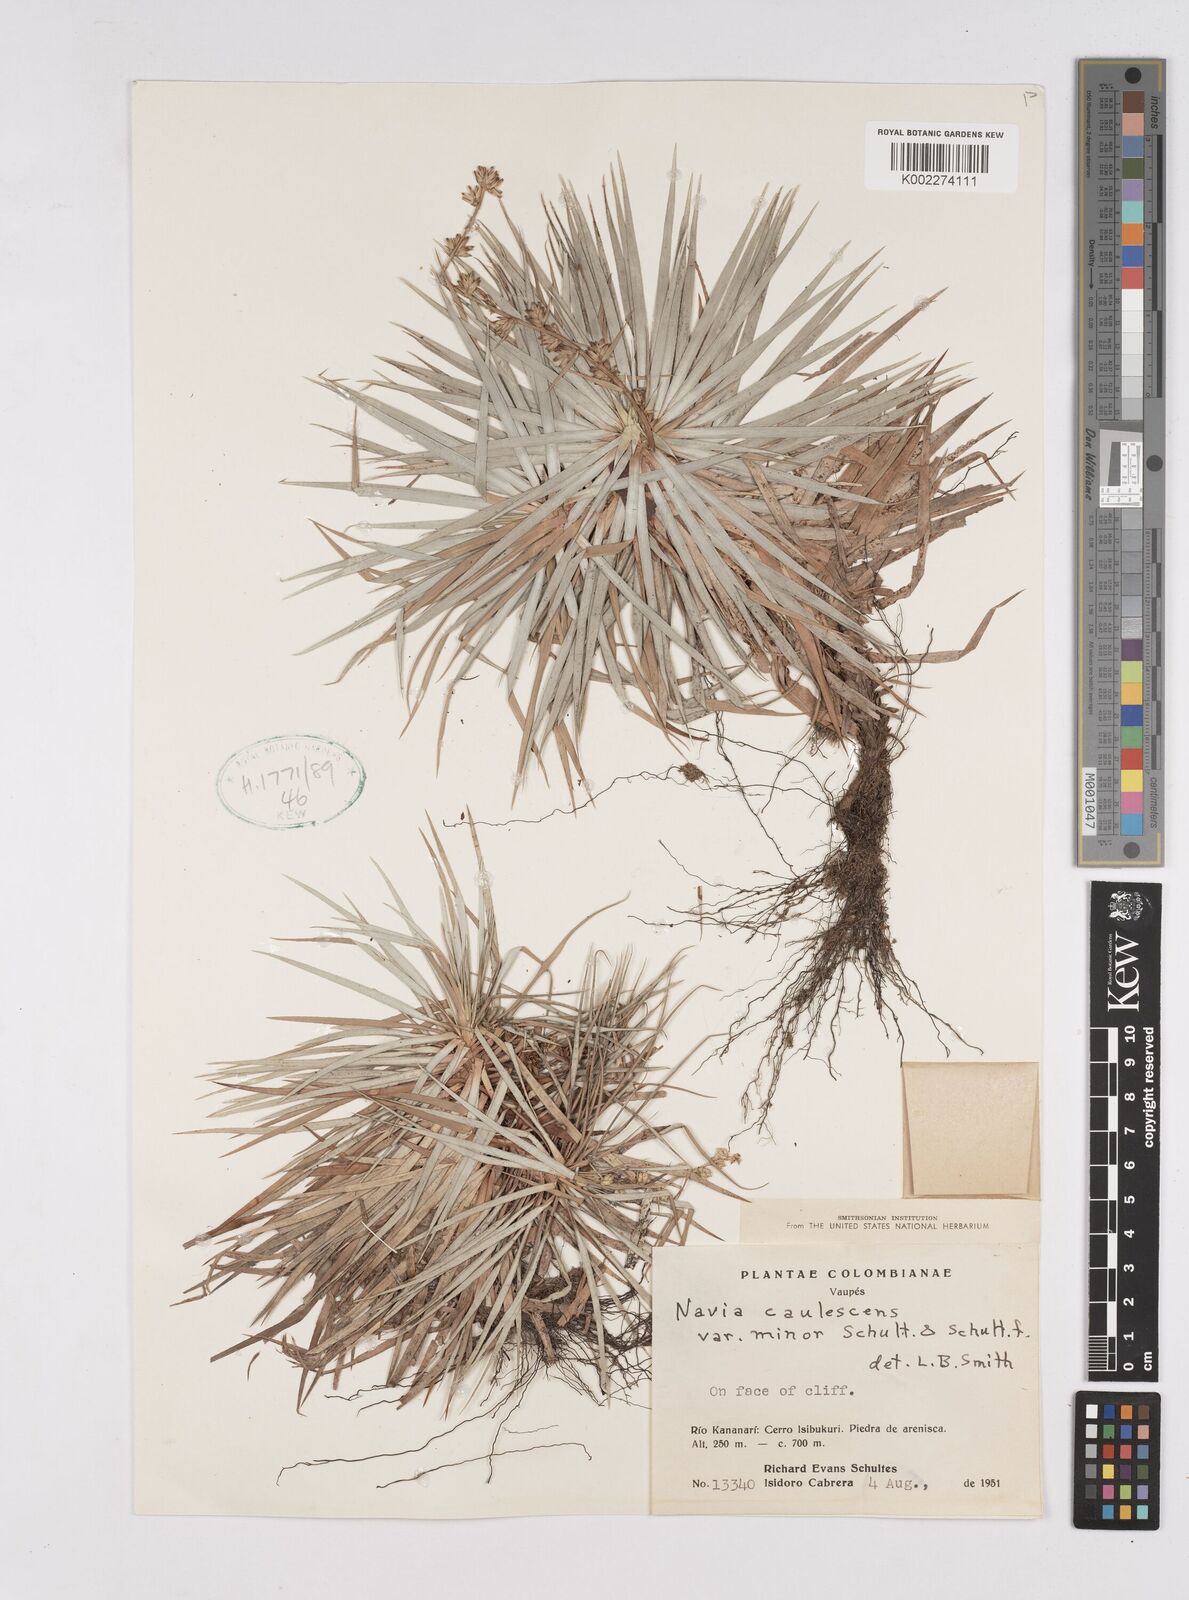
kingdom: Plantae
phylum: Tracheophyta
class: Liliopsida
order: Poales
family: Bromeliaceae
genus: Navia
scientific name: Navia caulescens
